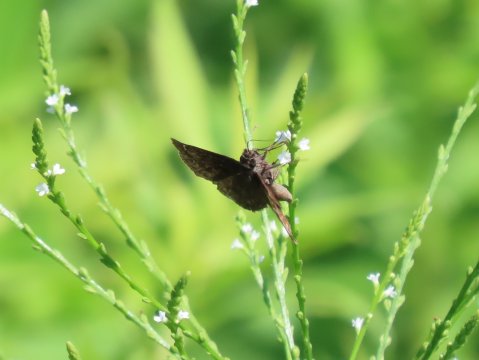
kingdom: Animalia
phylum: Arthropoda
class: Insecta
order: Lepidoptera
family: Hesperiidae
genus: Gesta
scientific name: Gesta
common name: Wild Indigo Duskywing
